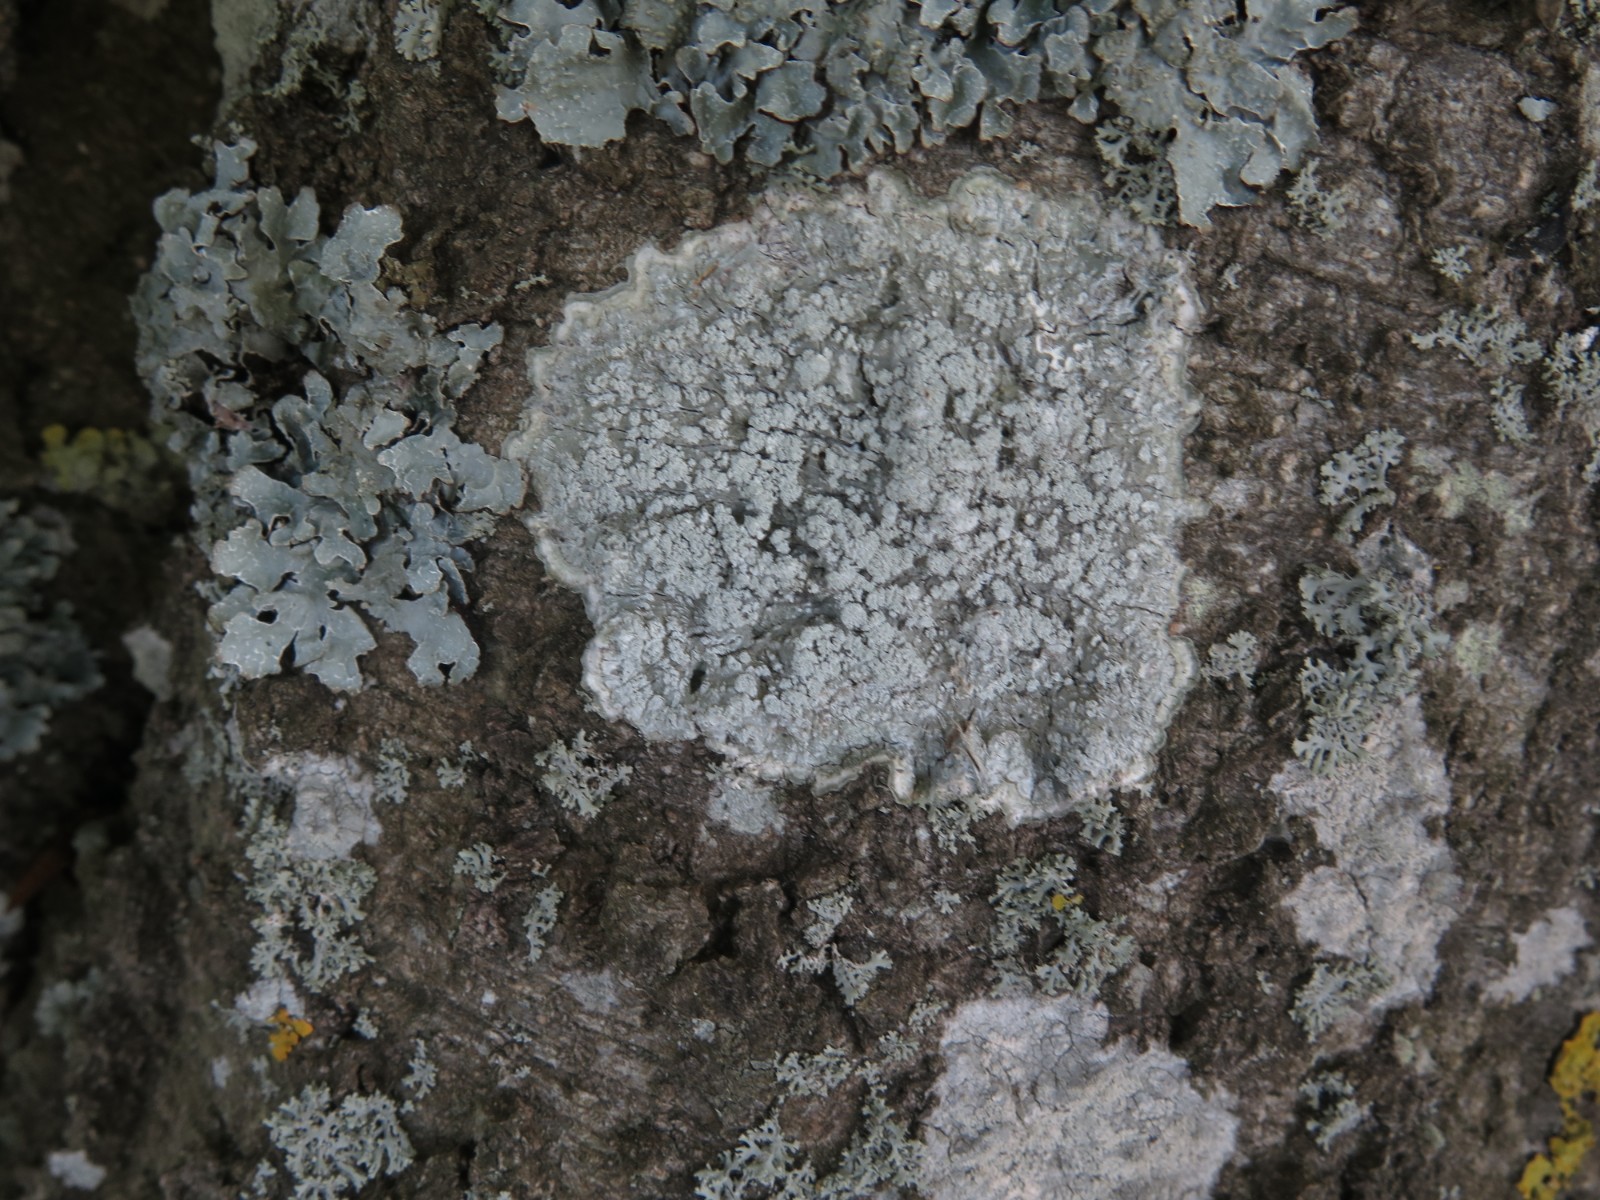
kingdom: Fungi
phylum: Ascomycota
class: Lecanoromycetes
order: Pertusariales
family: Pertusariaceae
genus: Lepra
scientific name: Lepra albescens
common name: hvidmelet prikvortelav
